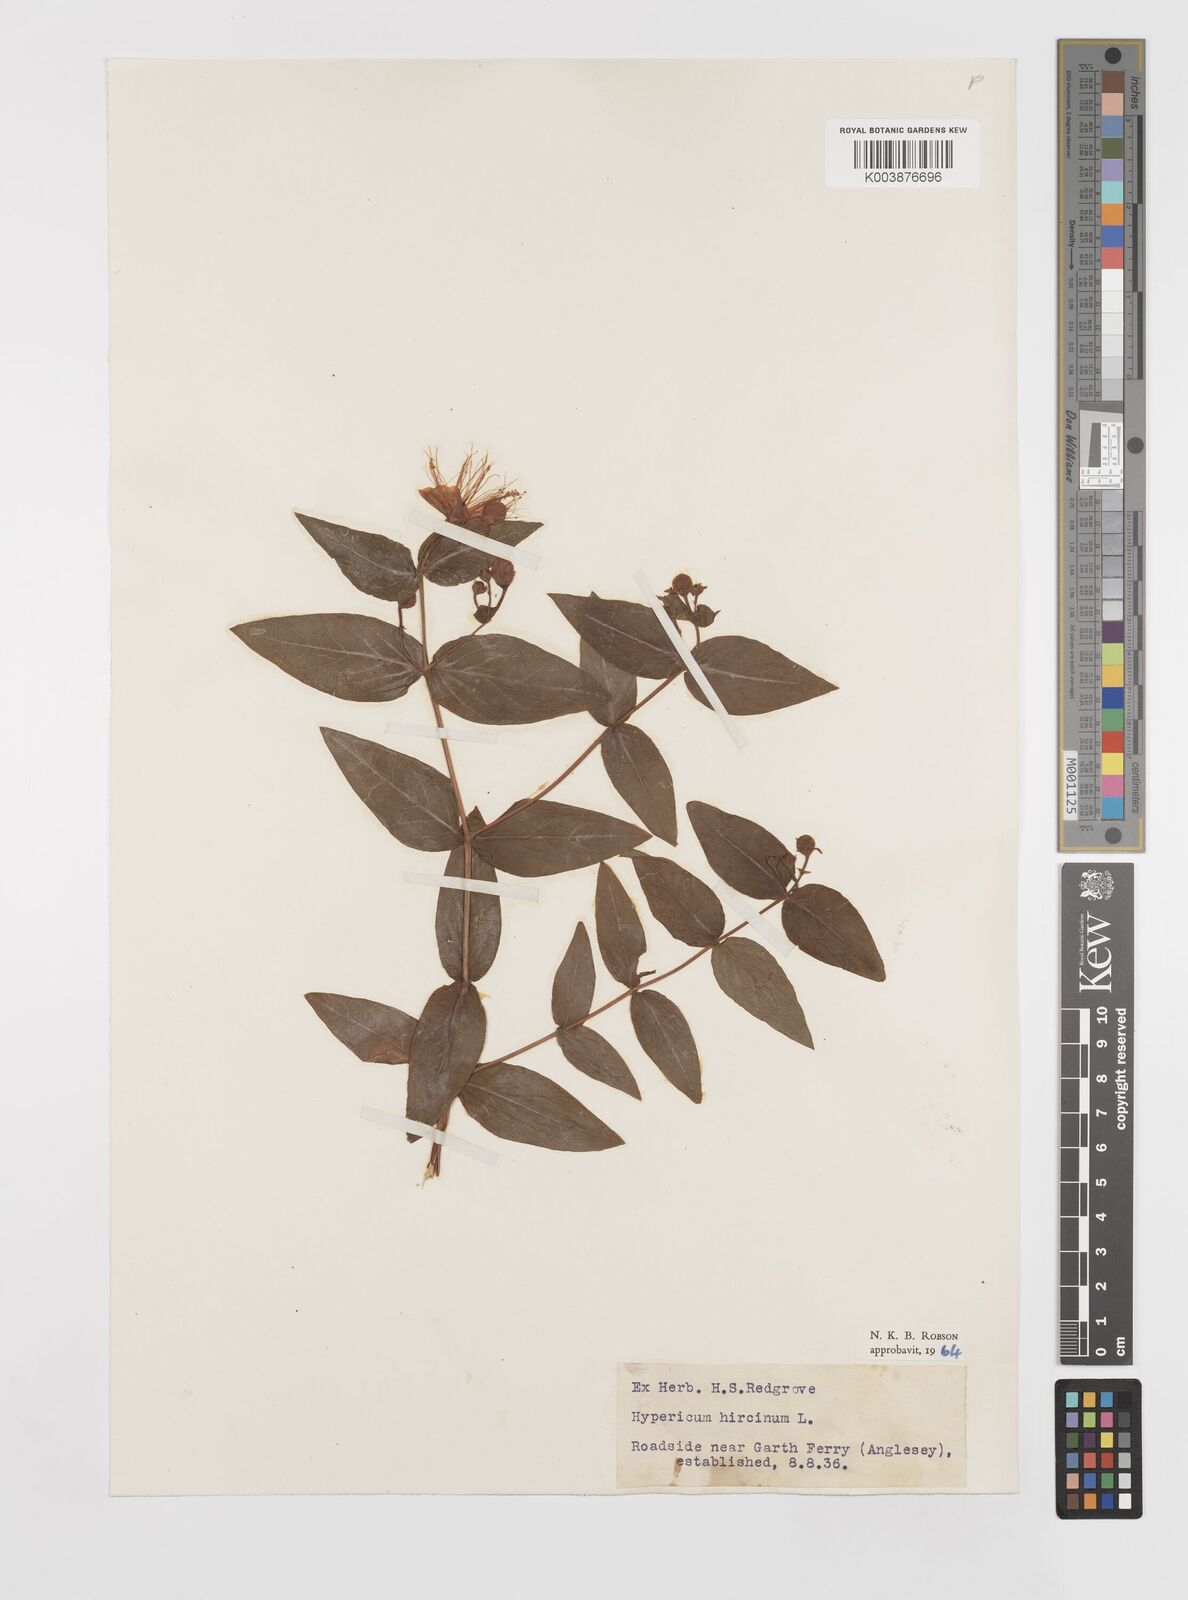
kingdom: Plantae
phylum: Tracheophyta
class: Magnoliopsida
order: Malpighiales
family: Hypericaceae
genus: Hypericum
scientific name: Hypericum hircinum
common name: Stinking tutsan
